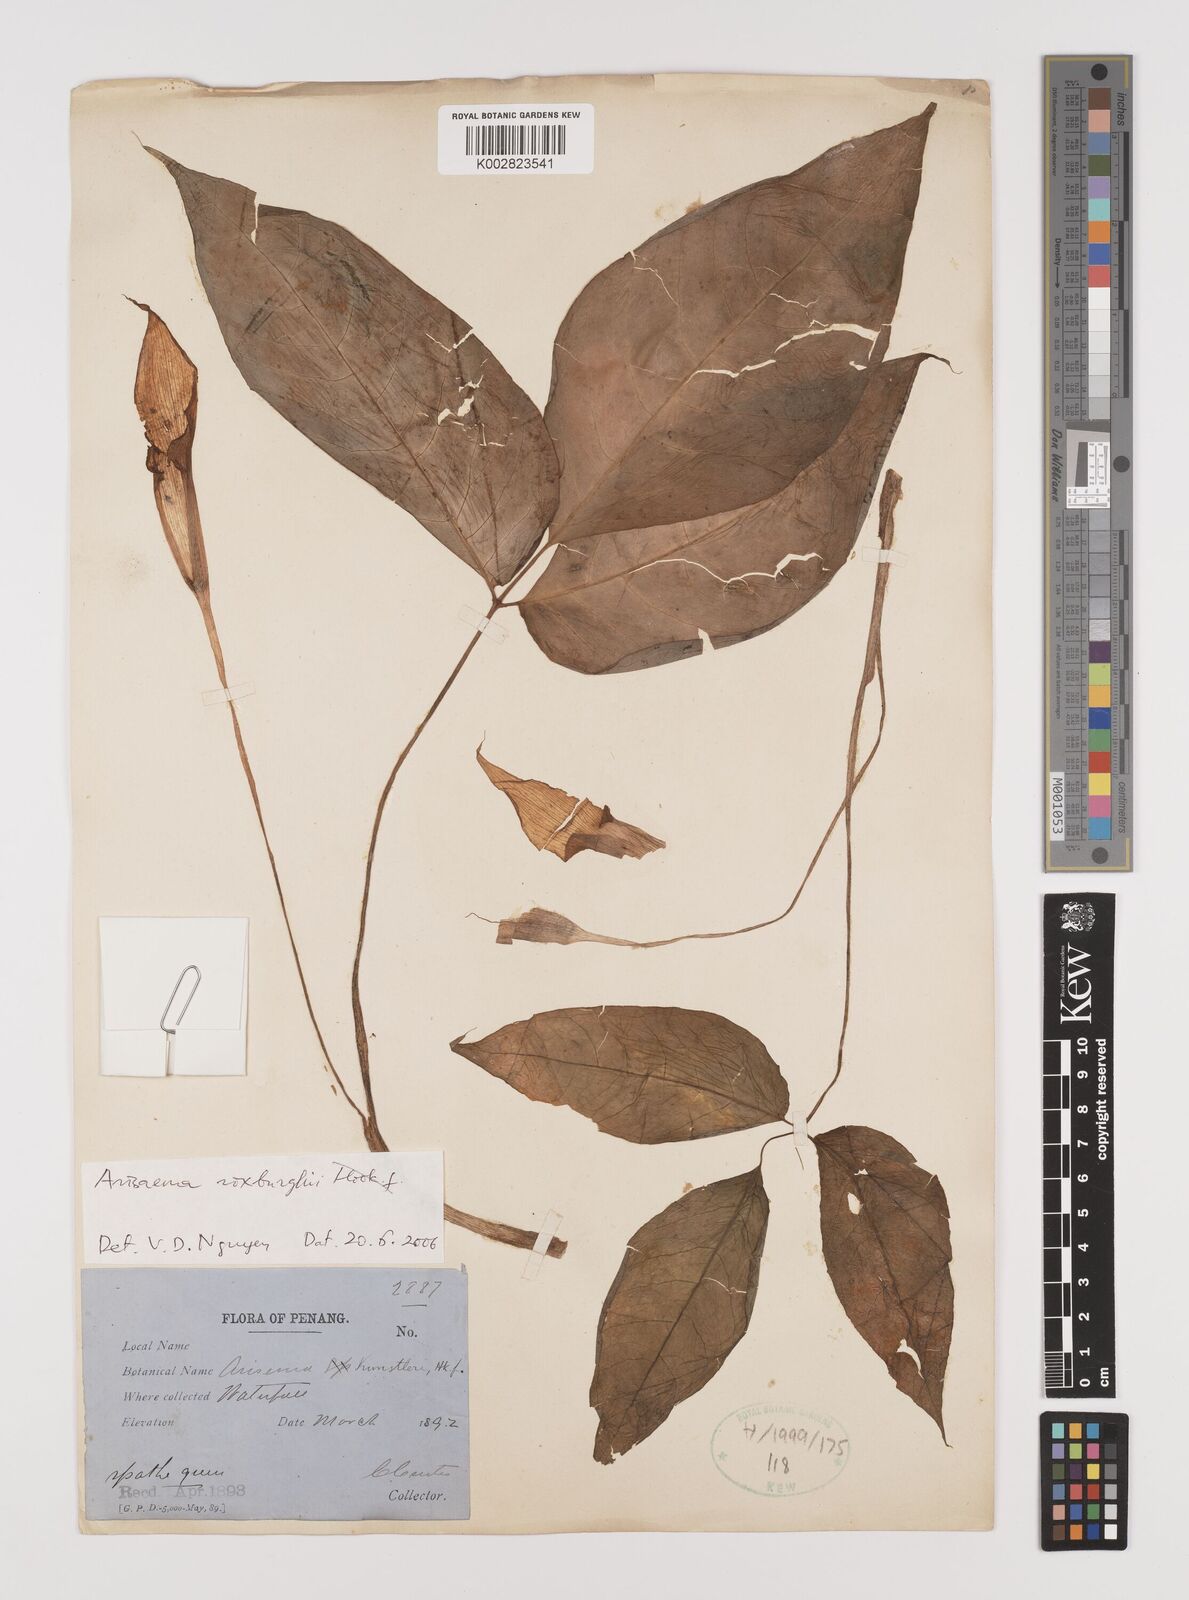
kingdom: Plantae
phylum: Tracheophyta
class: Liliopsida
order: Alismatales
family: Araceae
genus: Arisaema
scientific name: Arisaema roxburghii
